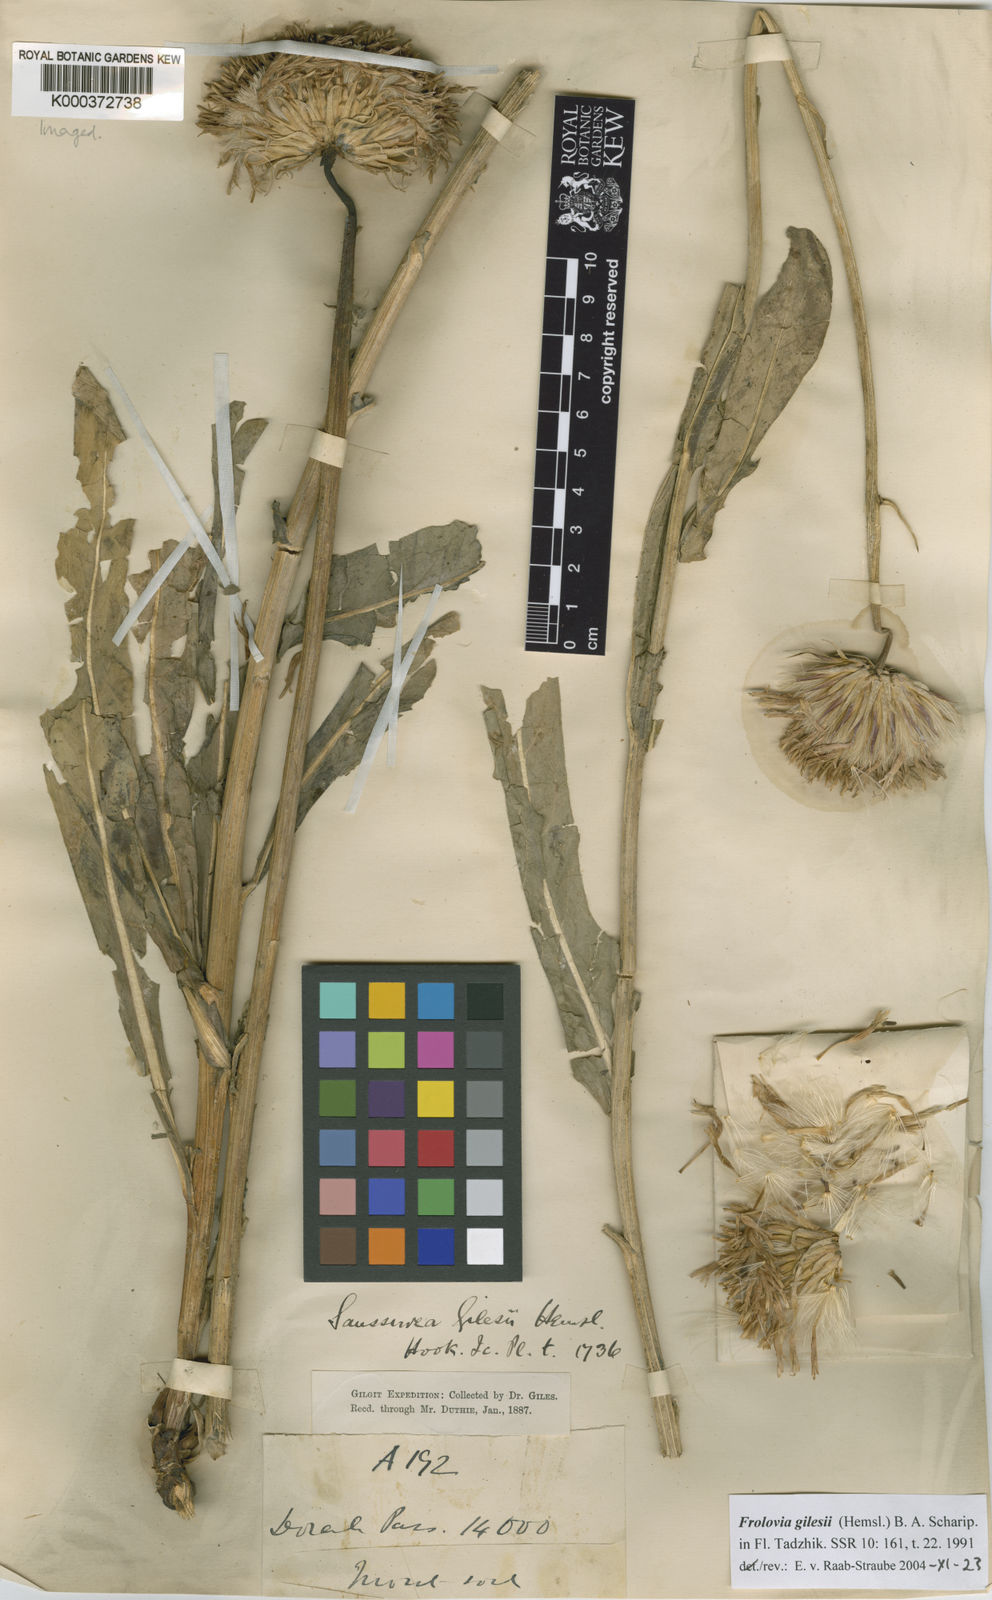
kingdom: Plantae
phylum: Tracheophyta
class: Magnoliopsida
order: Asterales
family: Asteraceae
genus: Jurinea
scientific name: Jurinea gilesii
